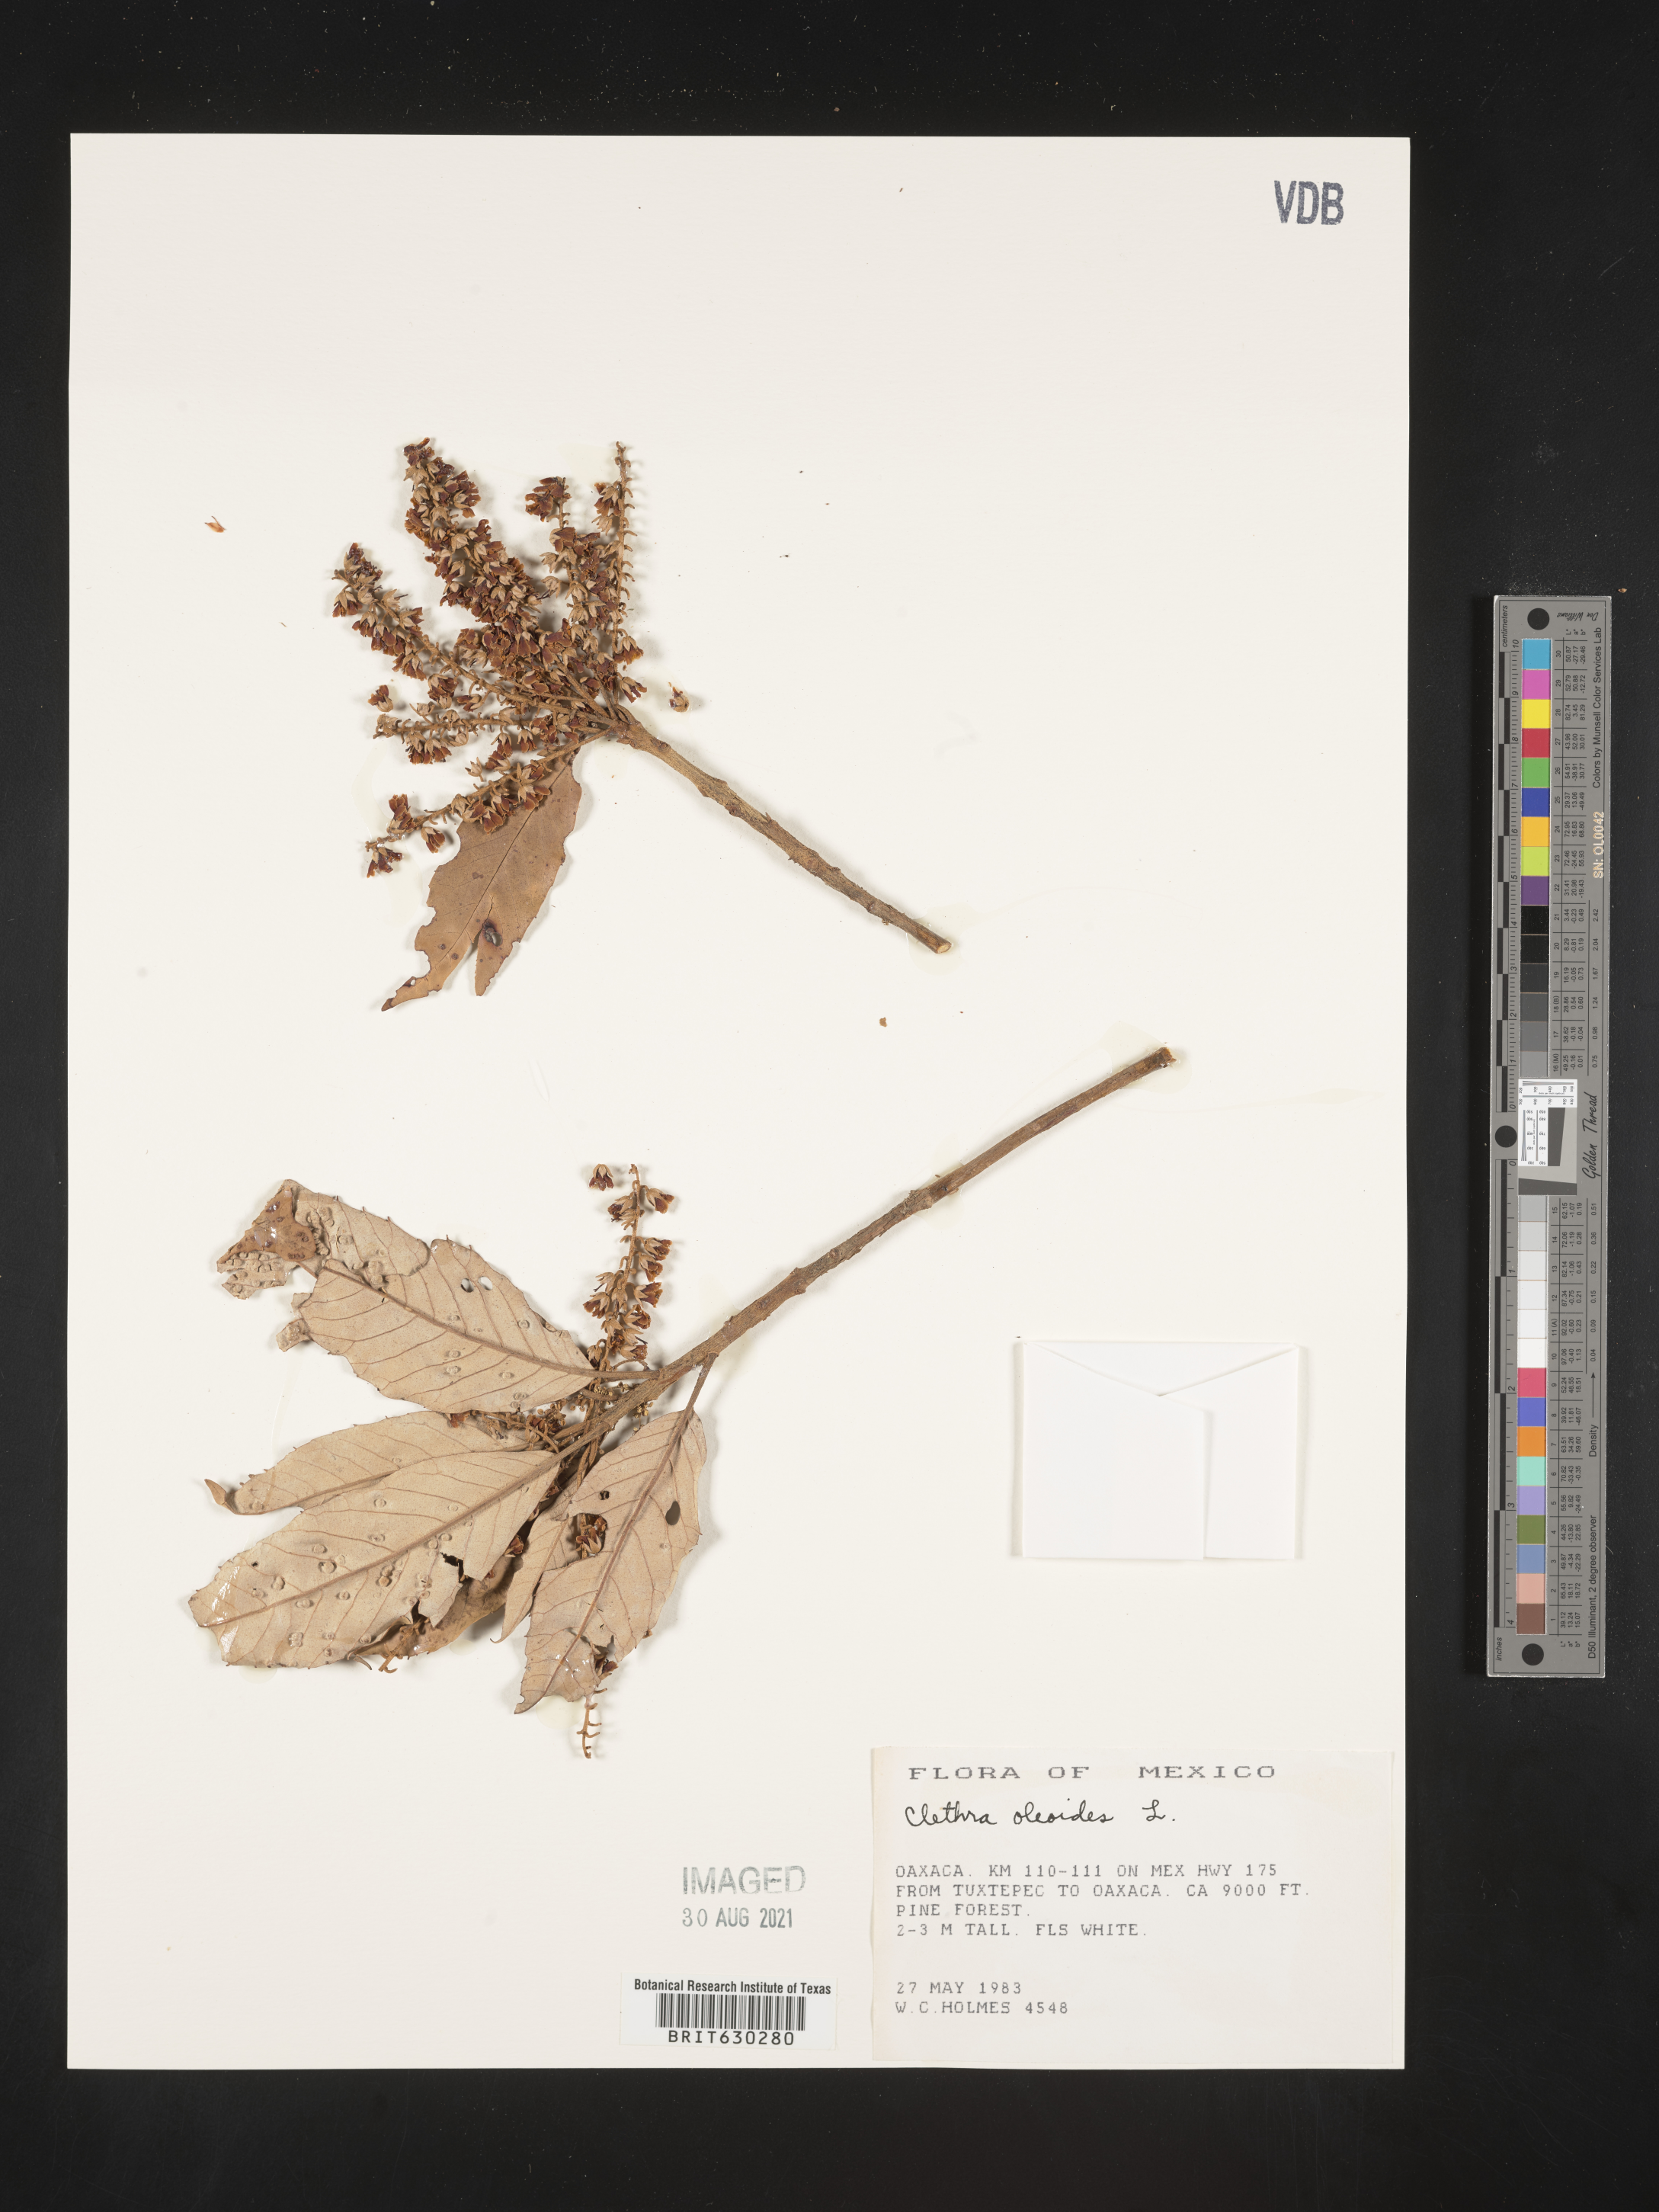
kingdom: Plantae
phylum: Tracheophyta
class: Magnoliopsida
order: Ericales
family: Clethraceae
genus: Clethra
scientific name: Clethra oleoides
